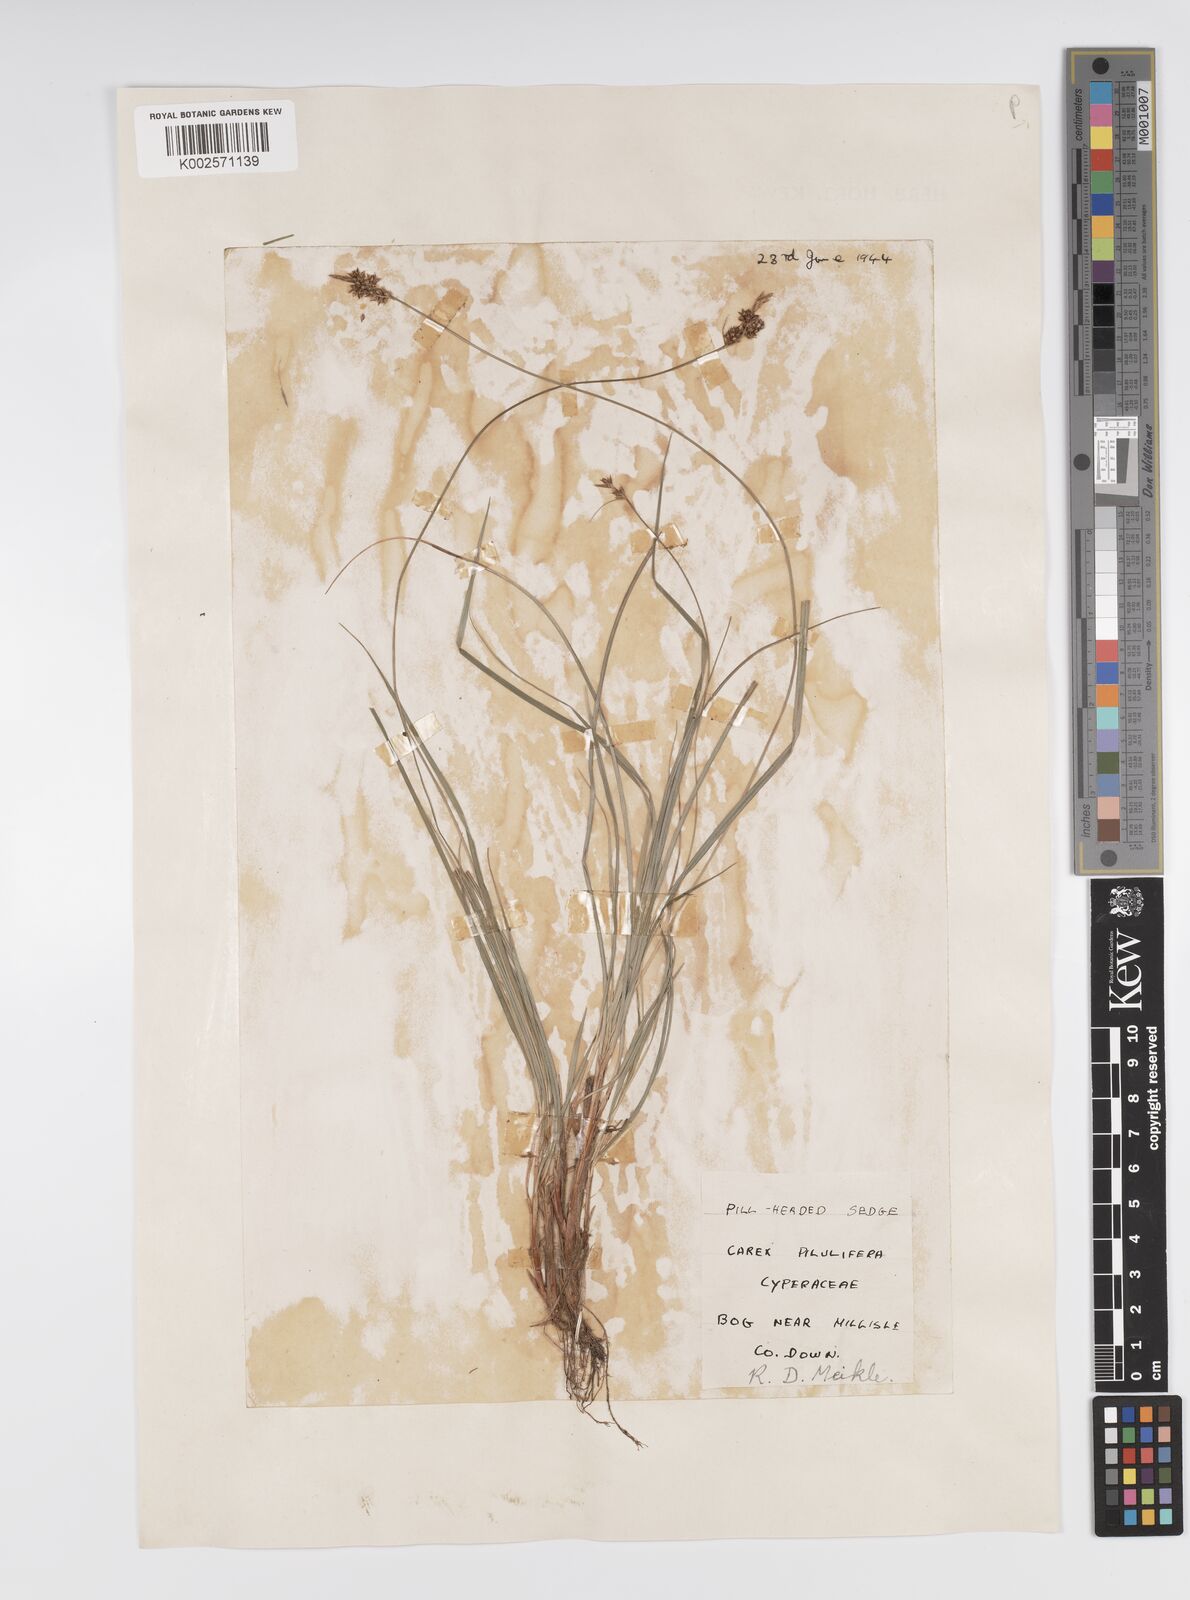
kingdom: Plantae
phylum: Tracheophyta
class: Liliopsida
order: Poales
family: Cyperaceae
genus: Carex
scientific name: Carex pilulifera
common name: Pill sedge
